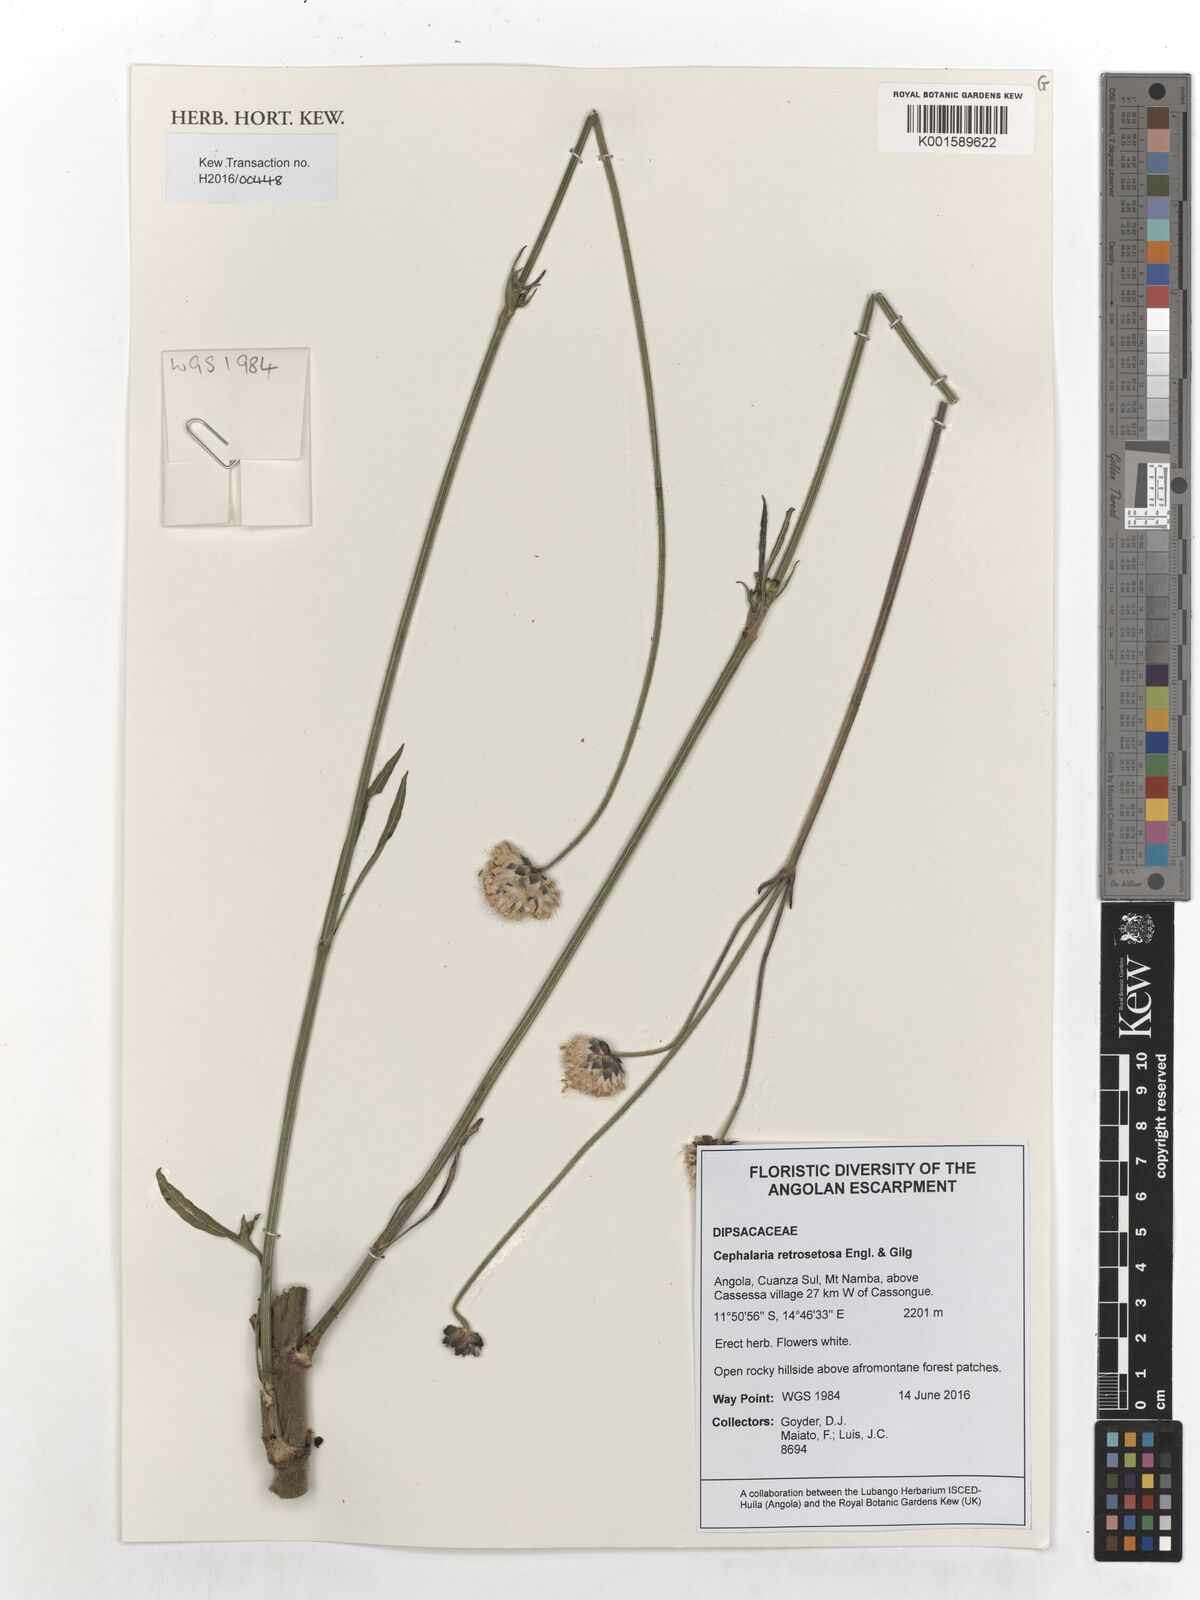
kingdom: Plantae
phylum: Tracheophyta
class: Magnoliopsida
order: Dipsacales
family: Caprifoliaceae
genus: Cephalaria
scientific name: Cephalaria retrosetosa
